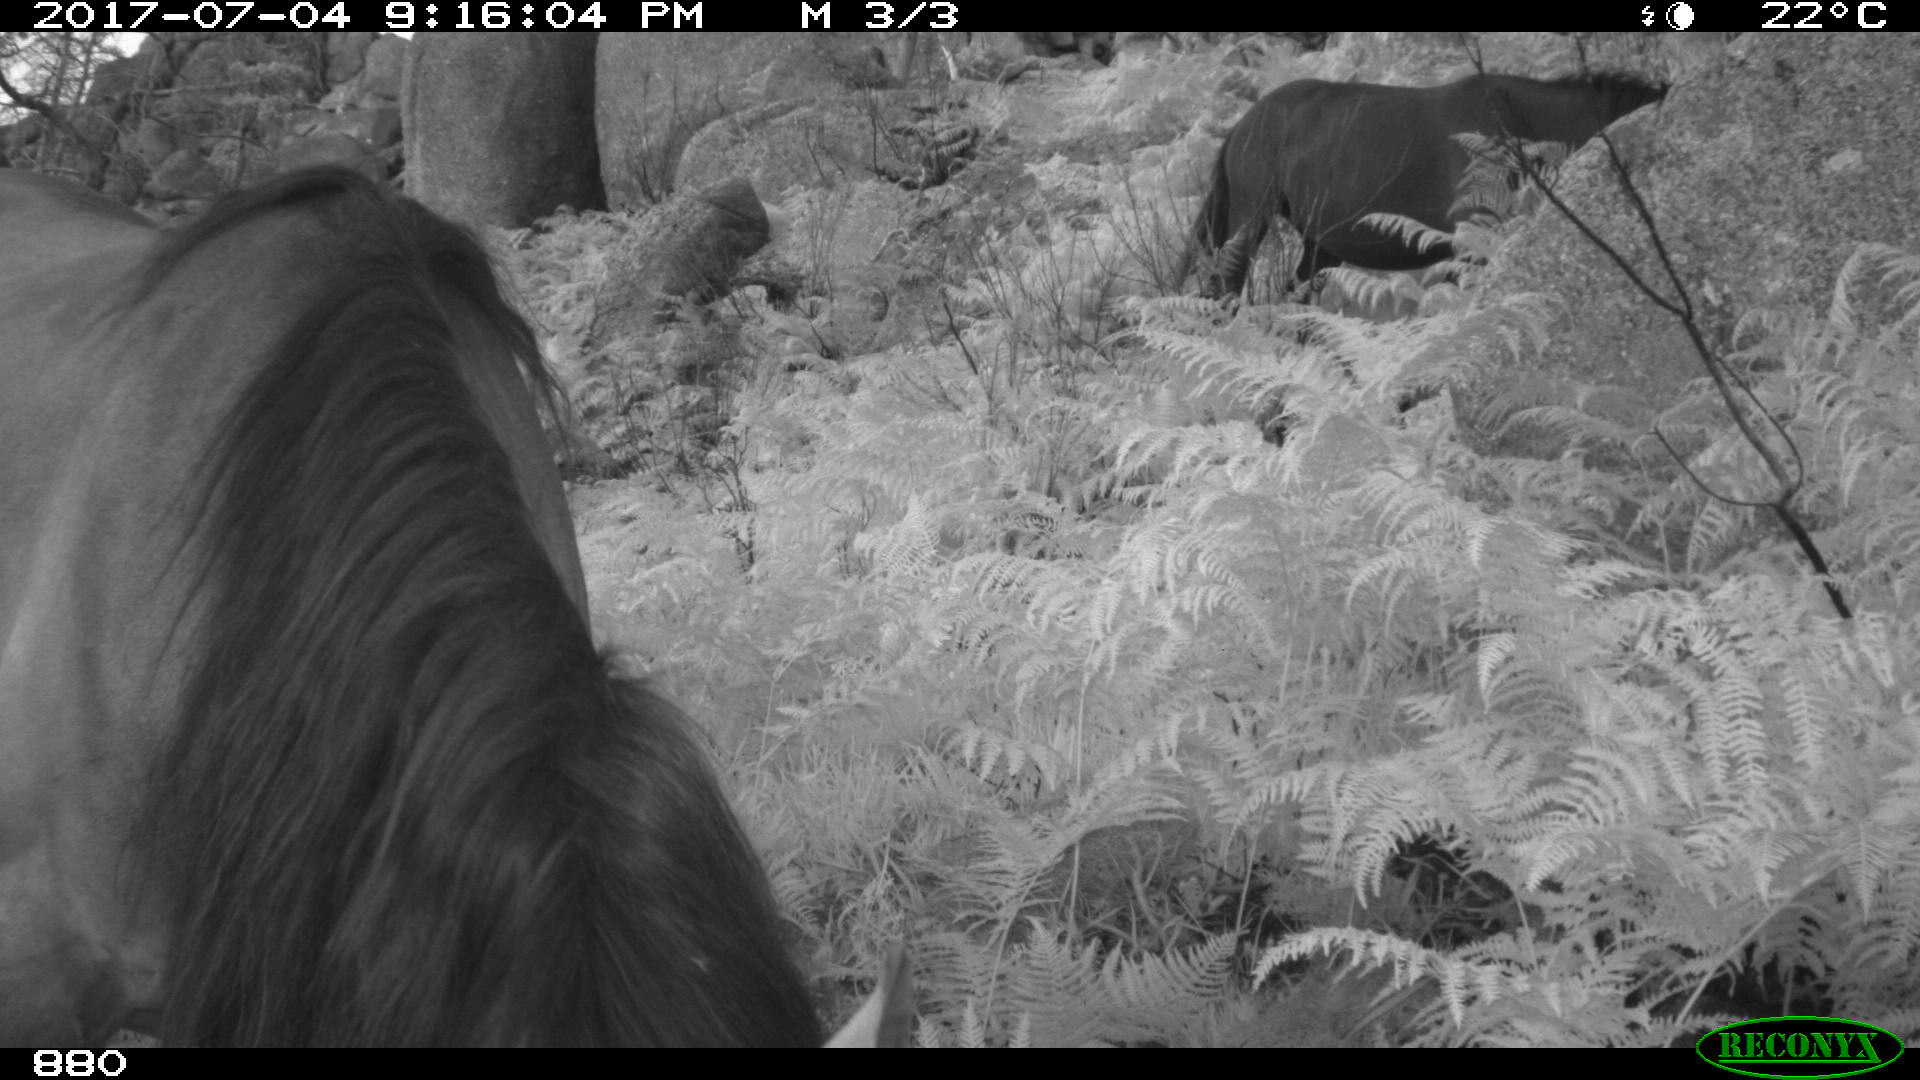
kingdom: Animalia
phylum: Chordata
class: Mammalia
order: Perissodactyla
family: Equidae
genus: Equus
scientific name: Equus caballus
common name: Horse
